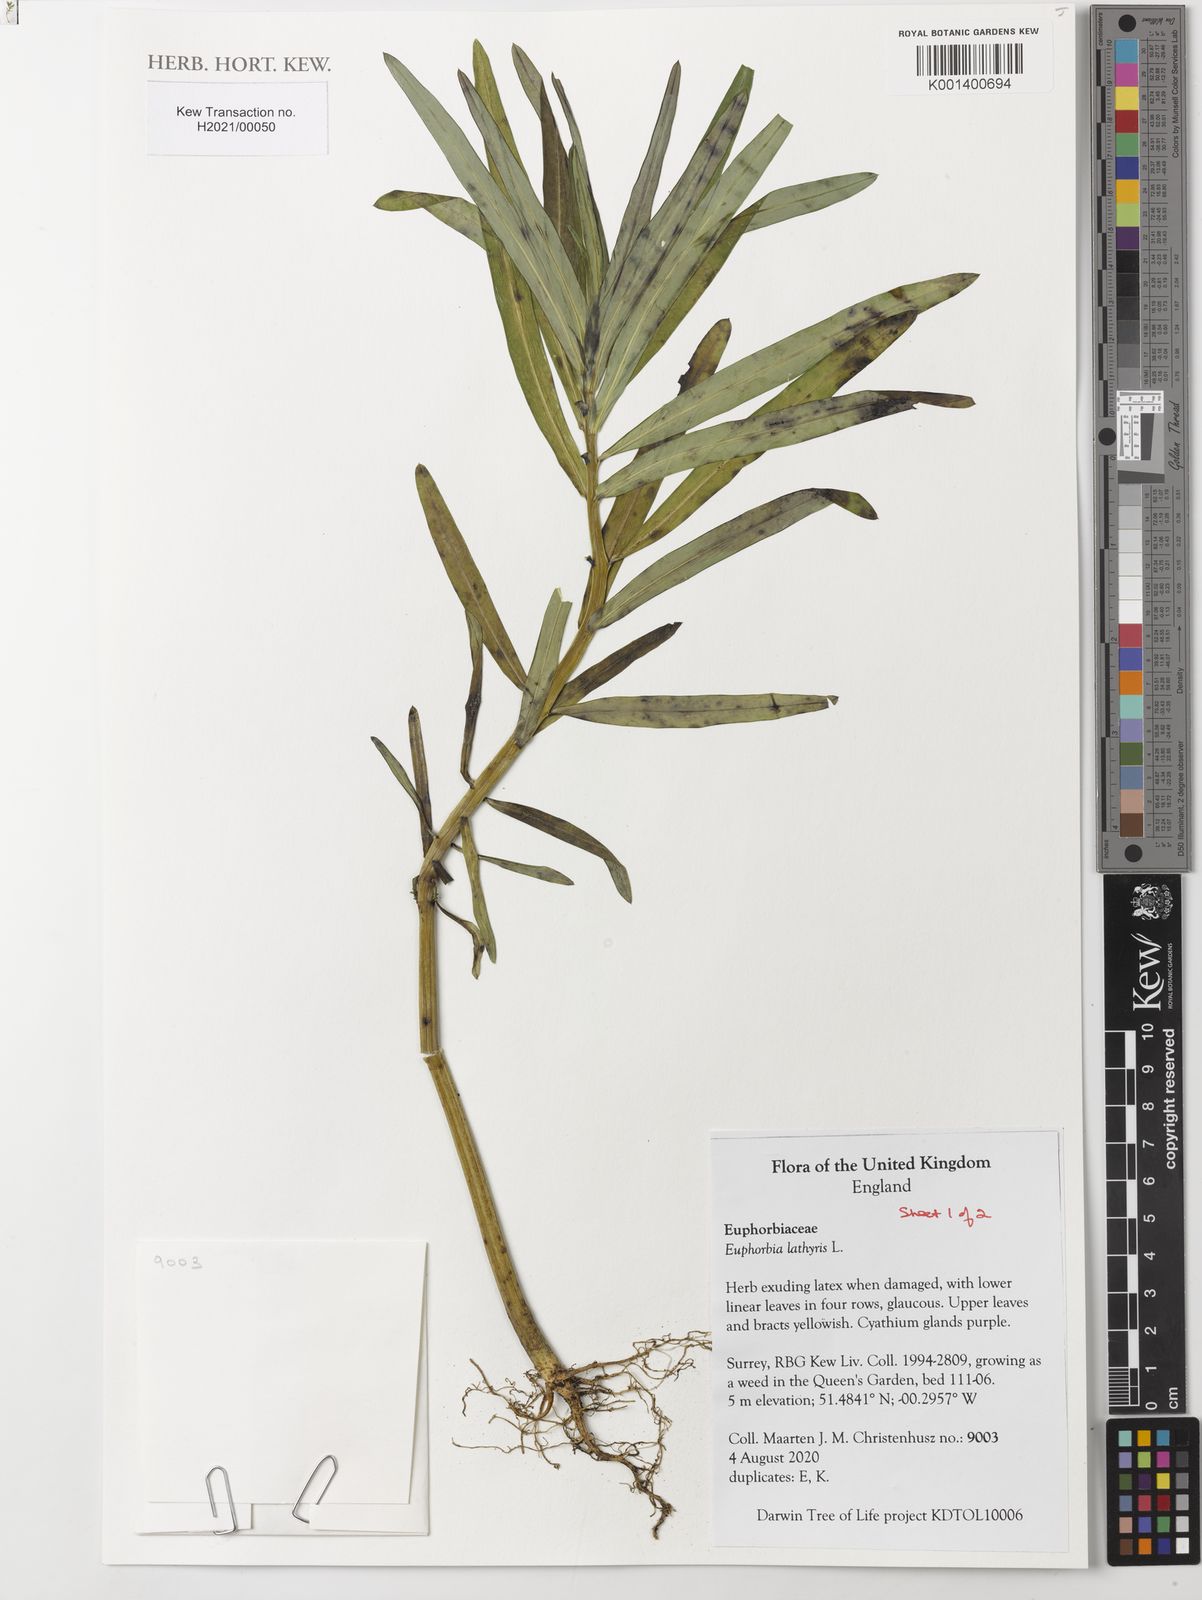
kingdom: Plantae
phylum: Tracheophyta
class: Magnoliopsida
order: Malpighiales
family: Euphorbiaceae
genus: Euphorbia
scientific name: Euphorbia lathyris
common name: Caper spurge
